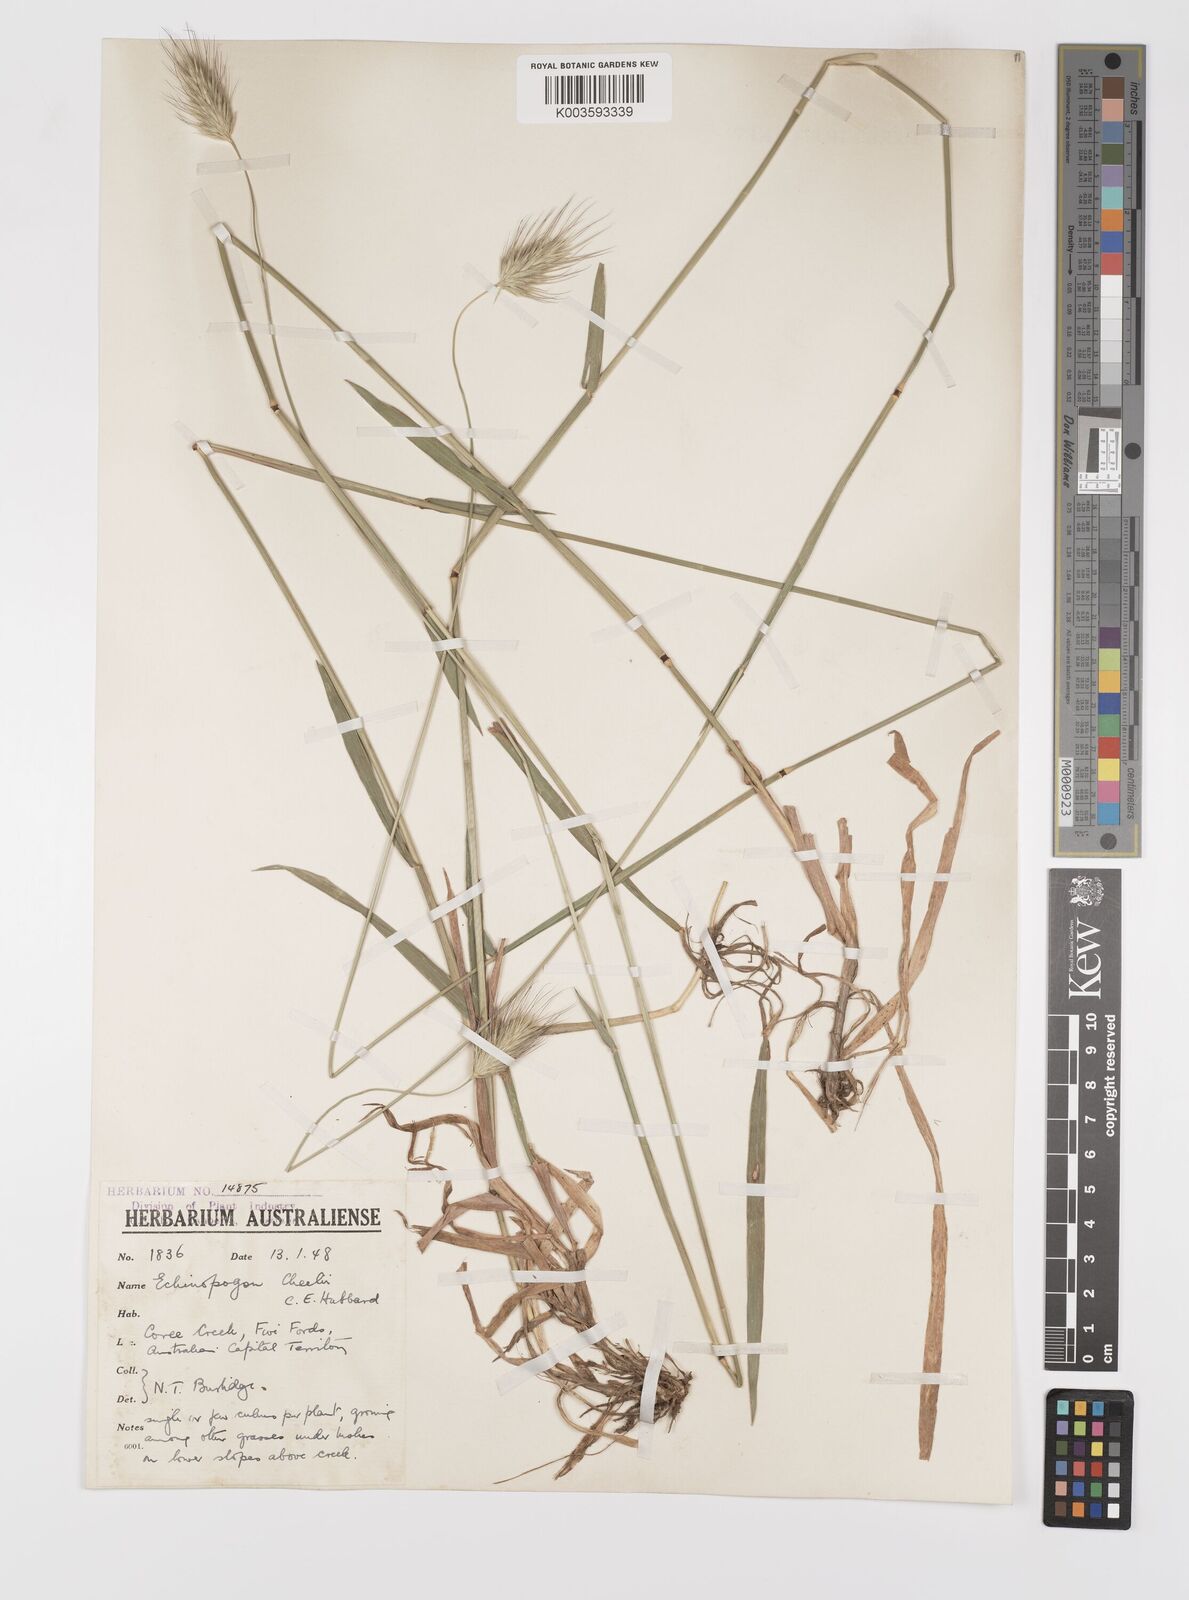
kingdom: Plantae
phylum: Tracheophyta
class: Liliopsida
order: Poales
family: Poaceae
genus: Echinopogon
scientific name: Echinopogon cheelii
